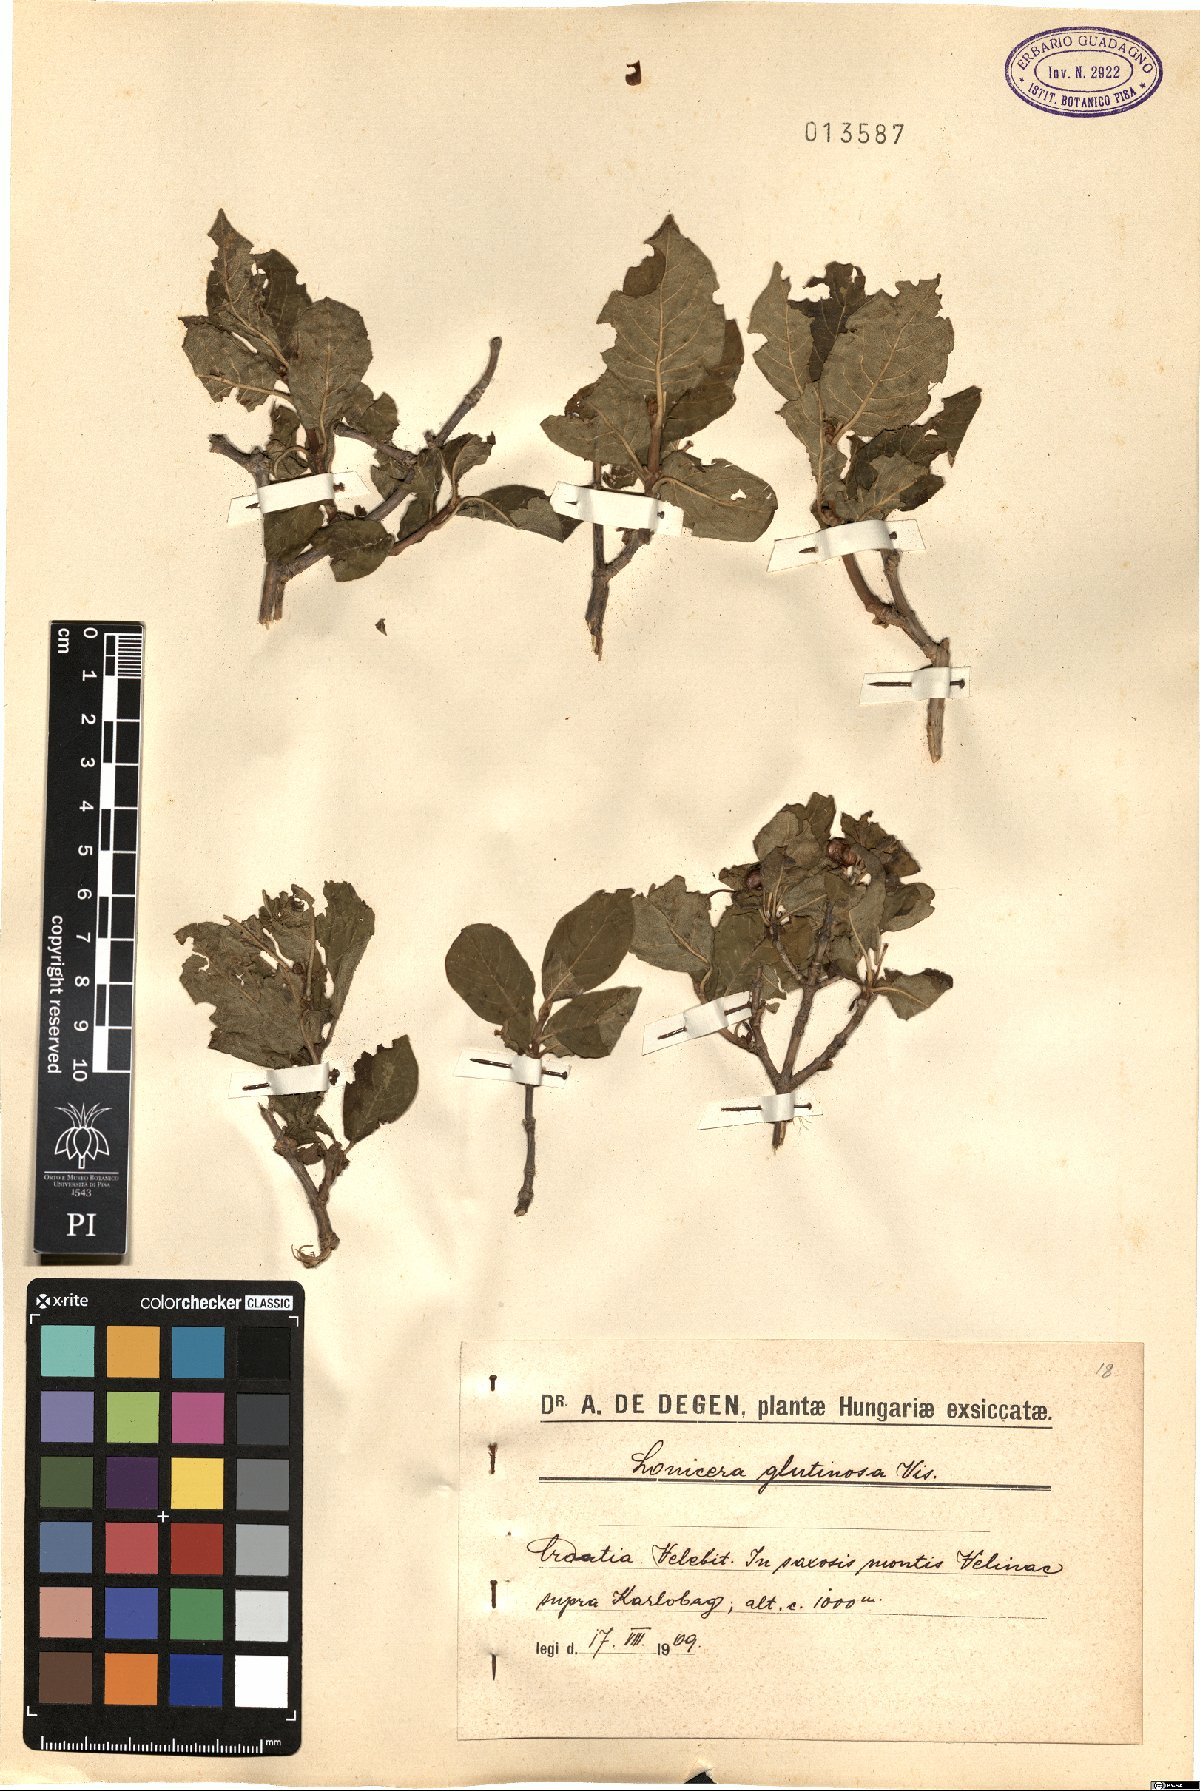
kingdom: Plantae
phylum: Tracheophyta
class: Magnoliopsida
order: Dipsacales
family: Caprifoliaceae
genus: Lonicera
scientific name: Lonicera alpigena
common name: Alpine honeysuckle
